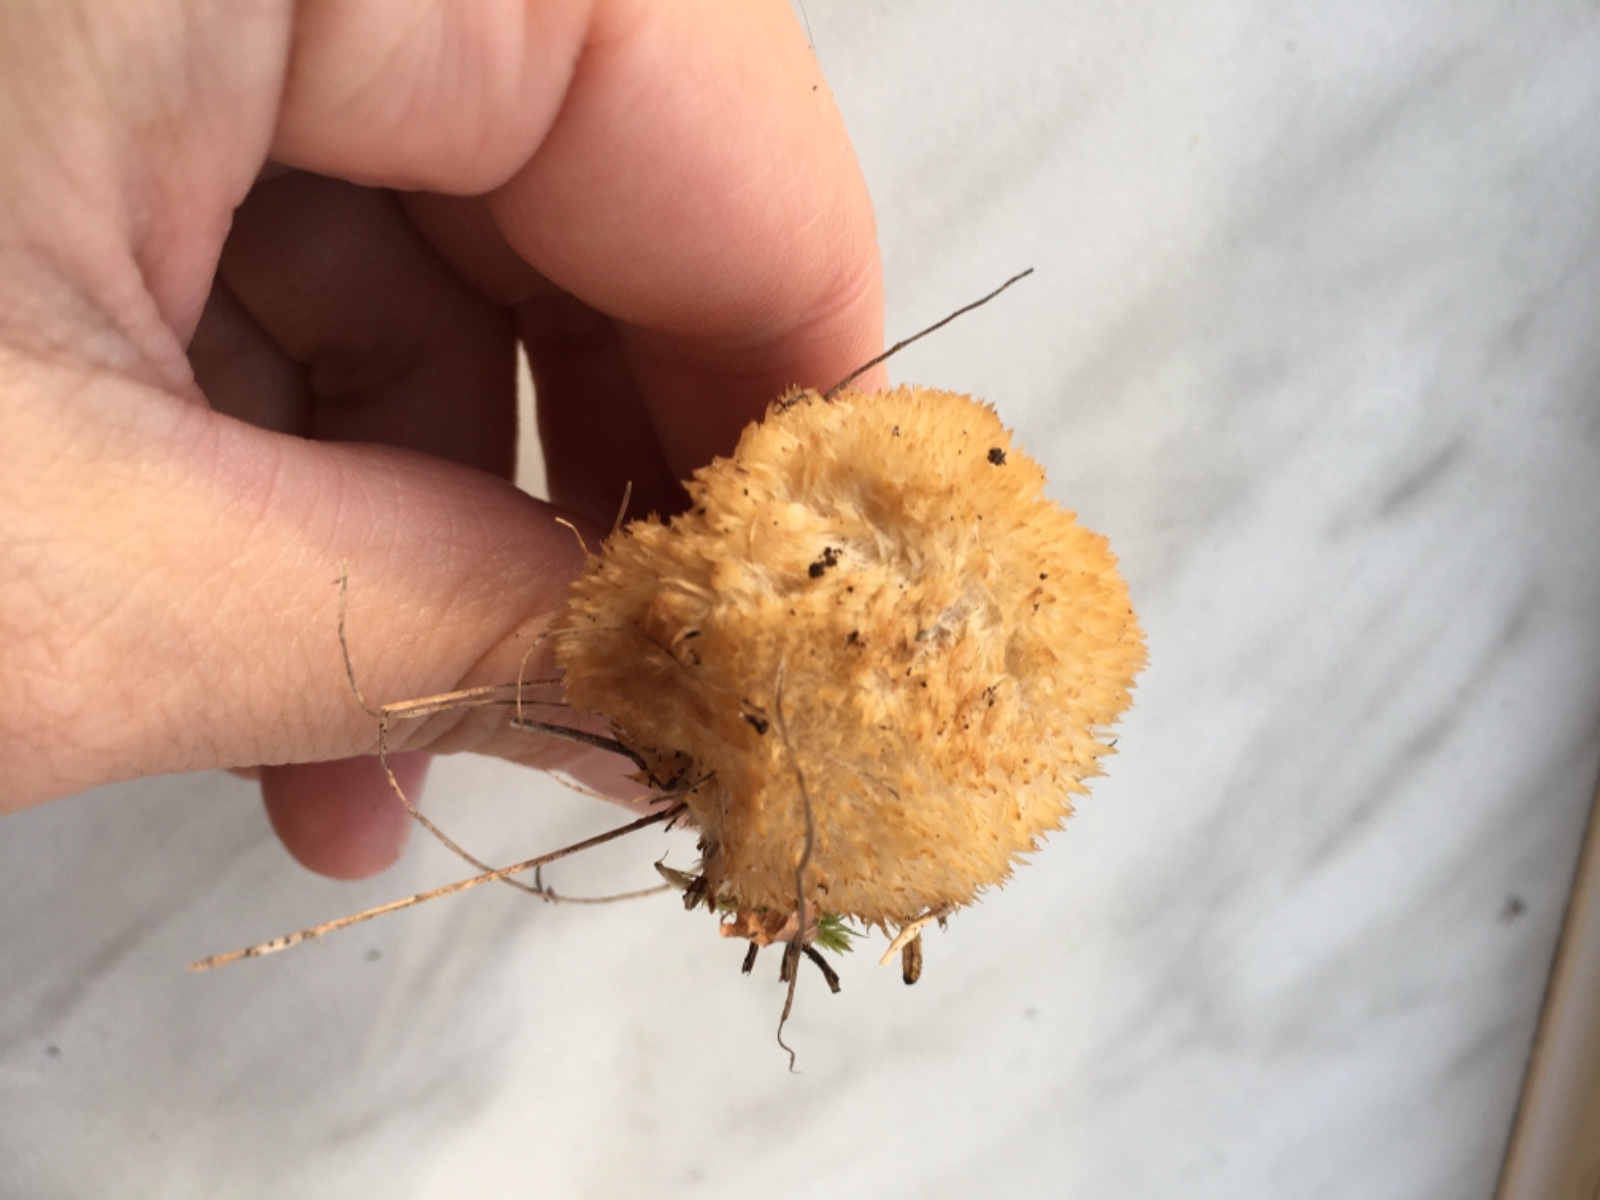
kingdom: Fungi
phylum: Basidiomycota
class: Agaricomycetes
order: Polyporales
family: Dacryobolaceae
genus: Postia
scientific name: Postia ptychogaster
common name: støvende kødporesvamp
